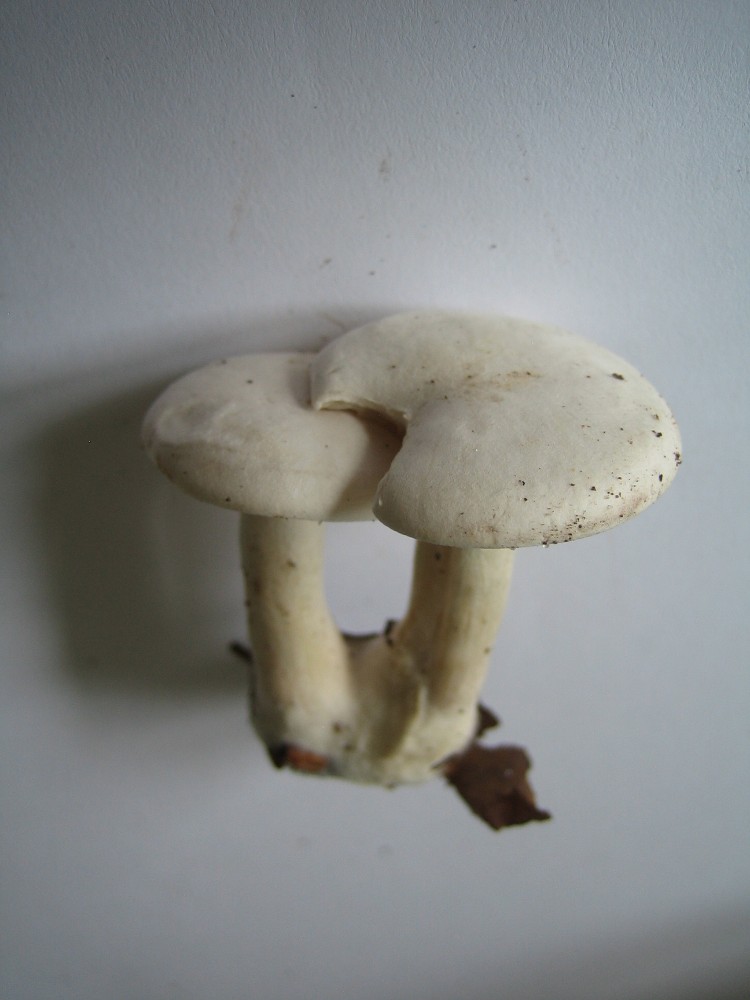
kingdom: Fungi
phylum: Basidiomycota
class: Agaricomycetes
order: Agaricales
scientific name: Agaricales
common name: champignonordenen
